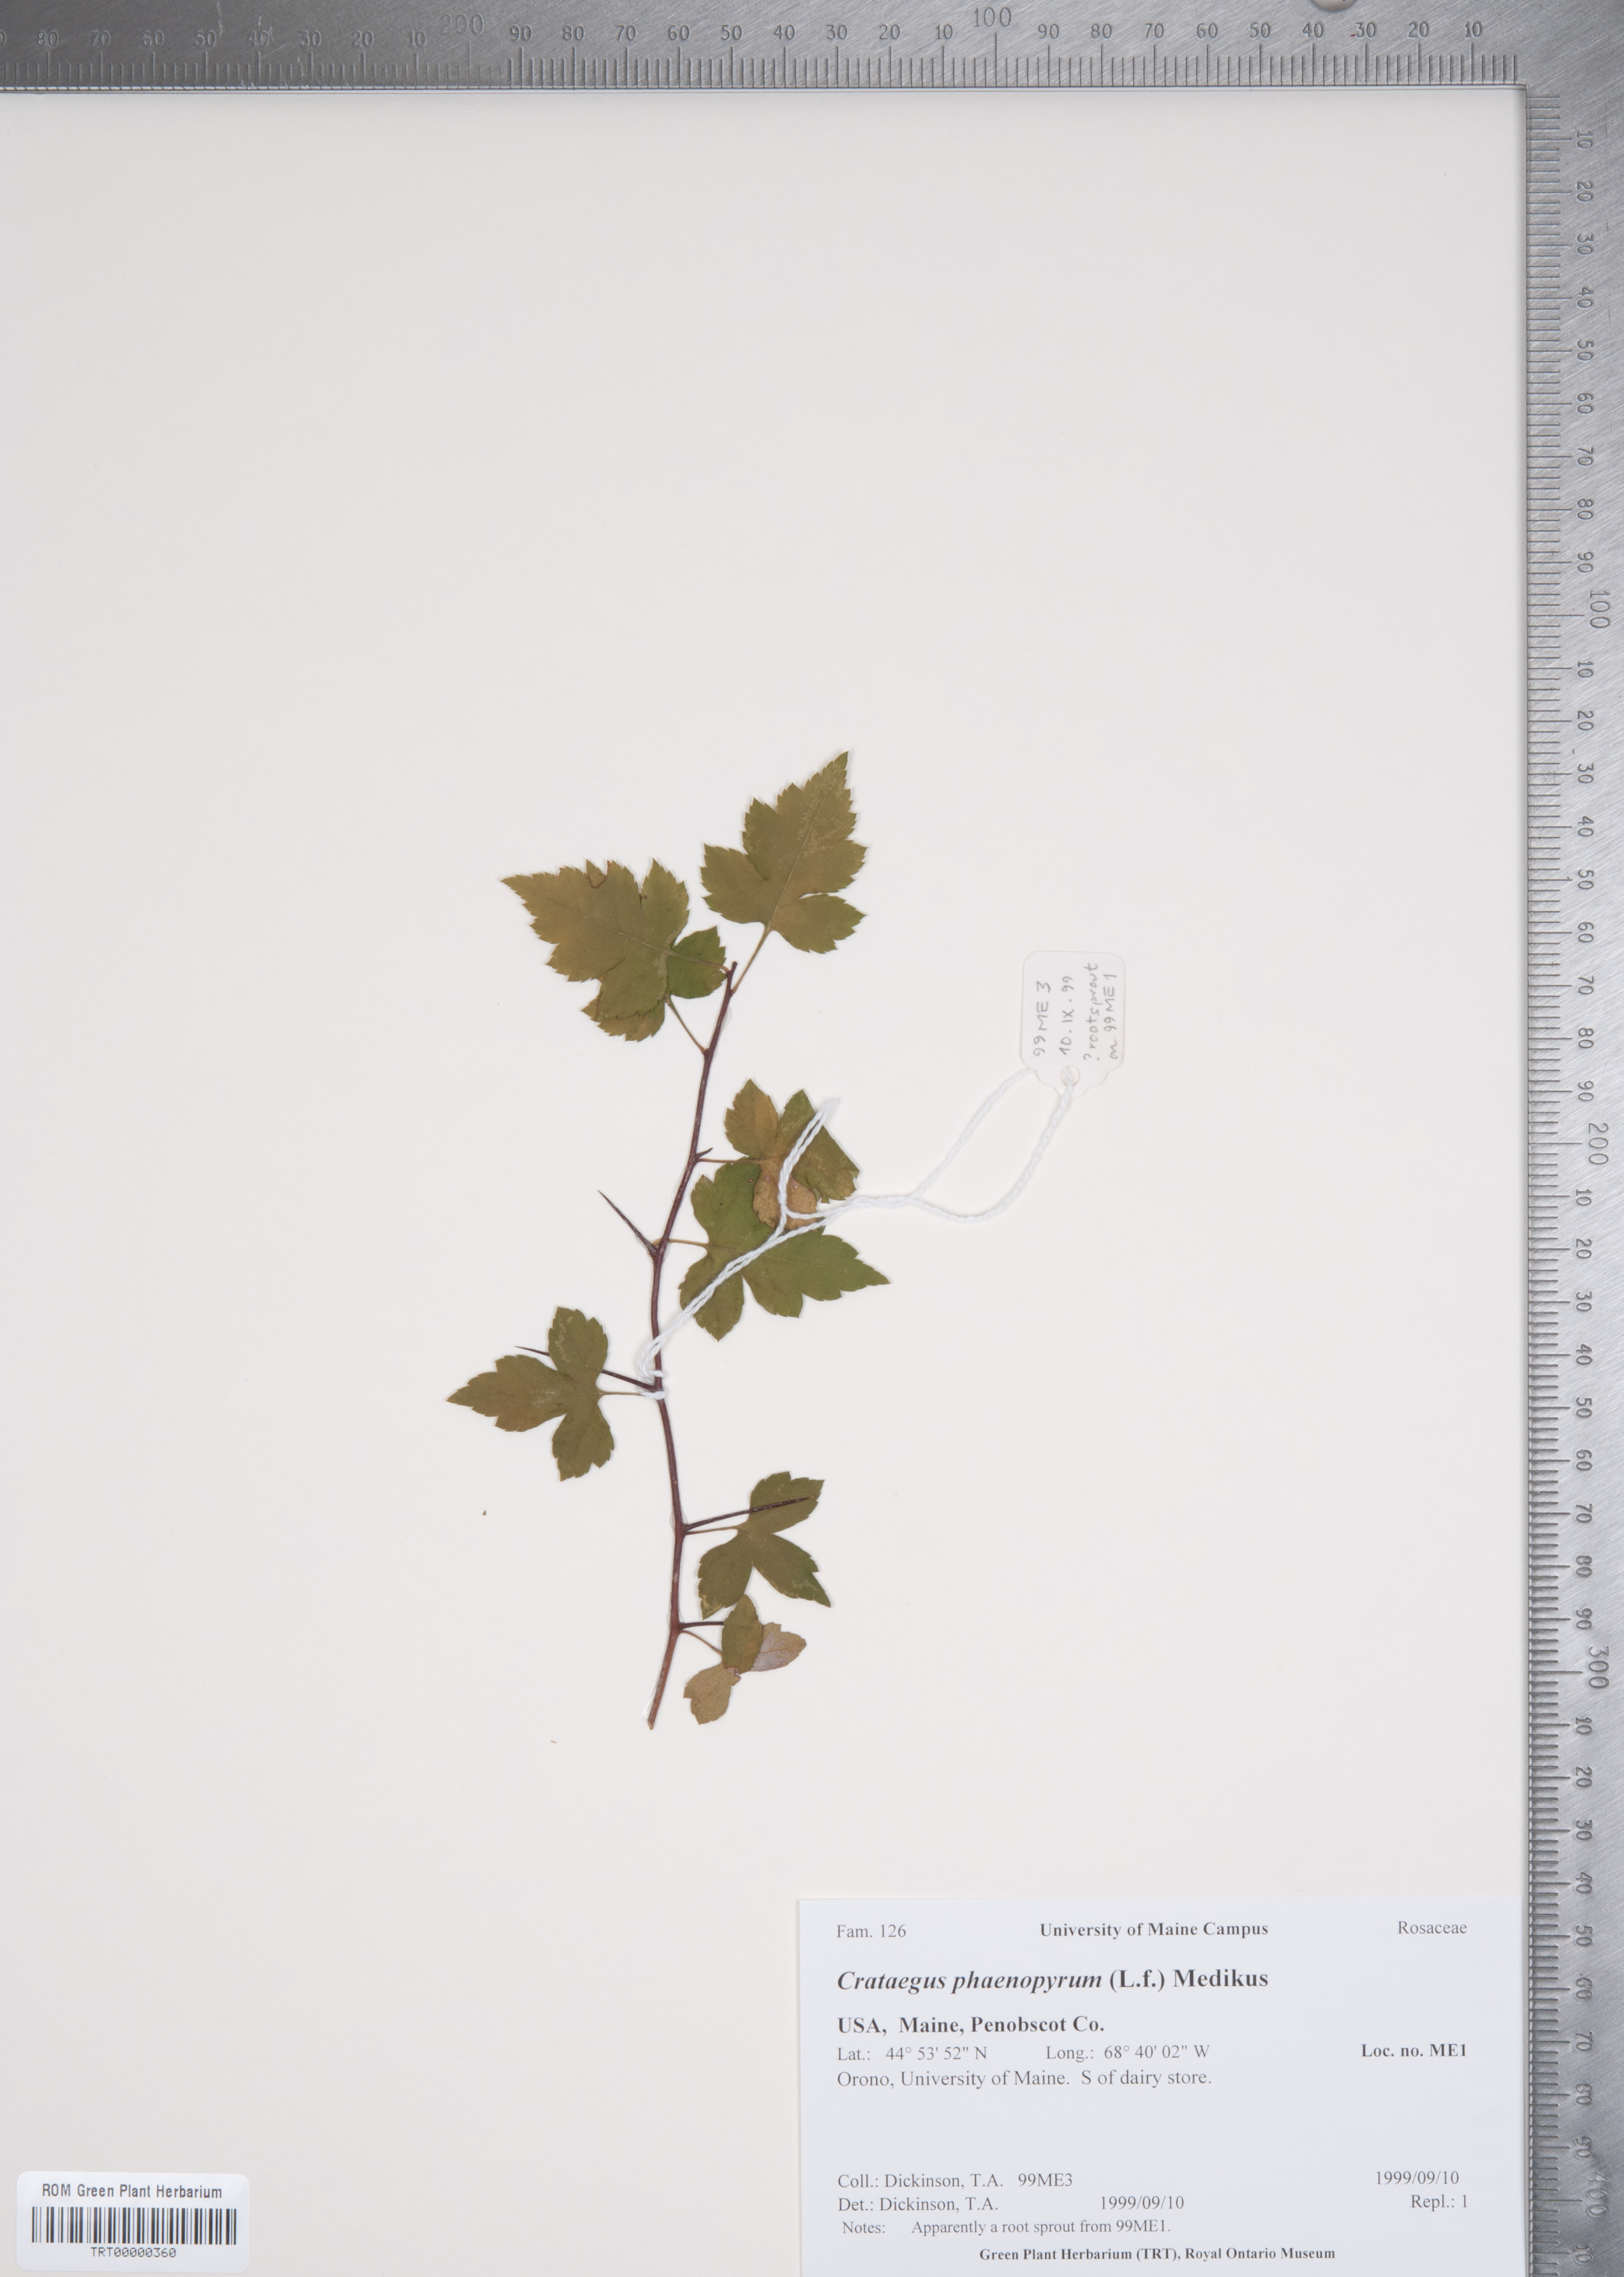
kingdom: Plantae
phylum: Tracheophyta
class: Magnoliopsida
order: Rosales
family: Rosaceae
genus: Crataegus
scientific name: Crataegus phaenopyrum
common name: Washington hawthorn
